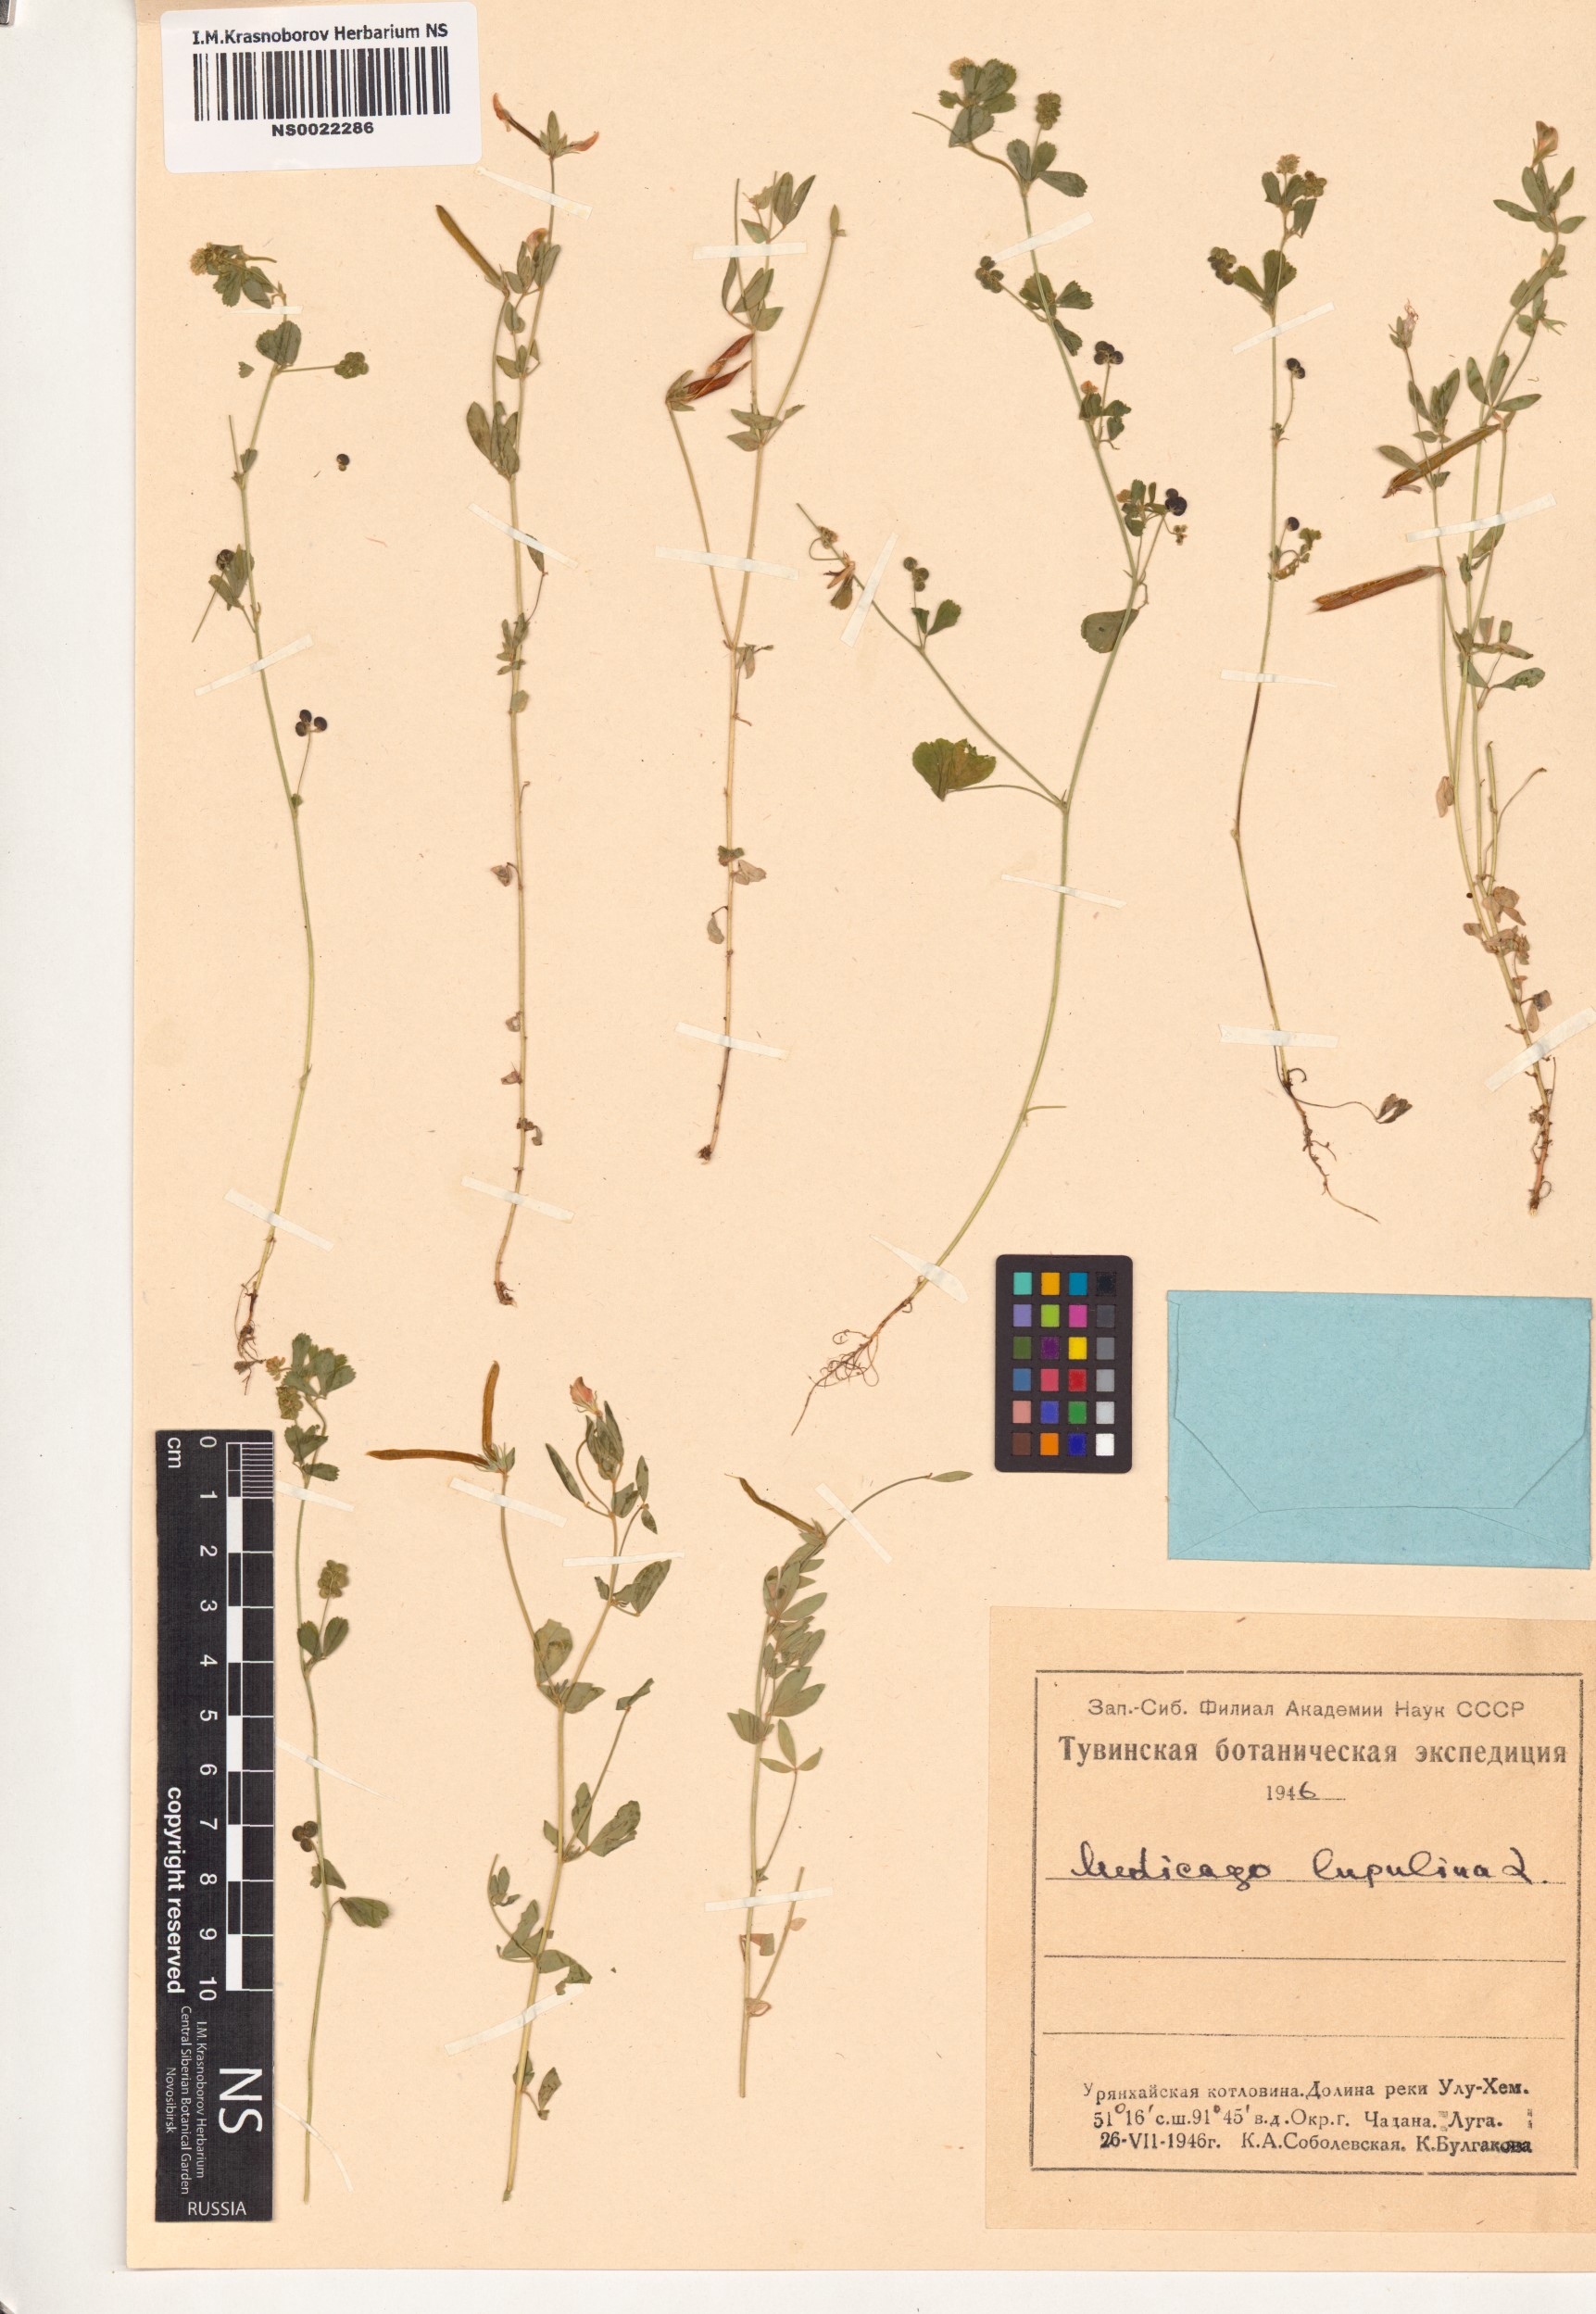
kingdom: Plantae
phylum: Tracheophyta
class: Magnoliopsida
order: Fabales
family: Fabaceae
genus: Medicago
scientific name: Medicago lupulina
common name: Black medick
